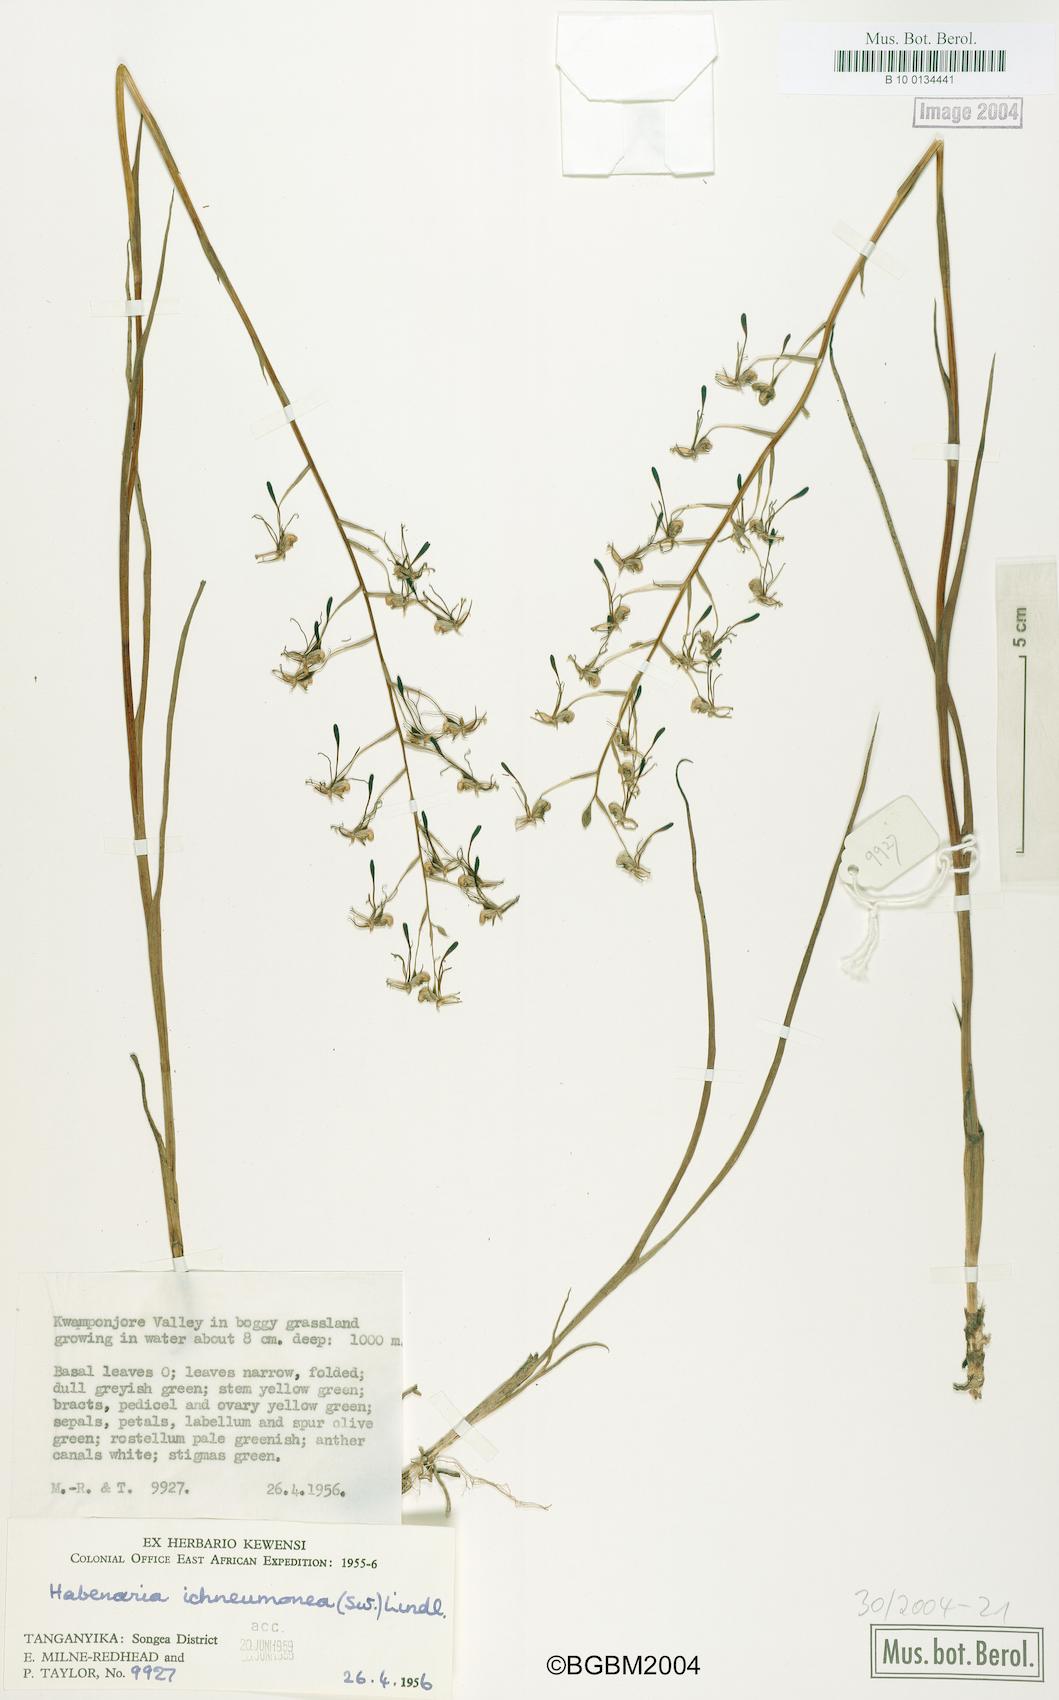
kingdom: Plantae
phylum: Tracheophyta
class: Liliopsida
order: Asparagales
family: Orchidaceae
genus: Habenaria
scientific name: Habenaria ichneumonea
